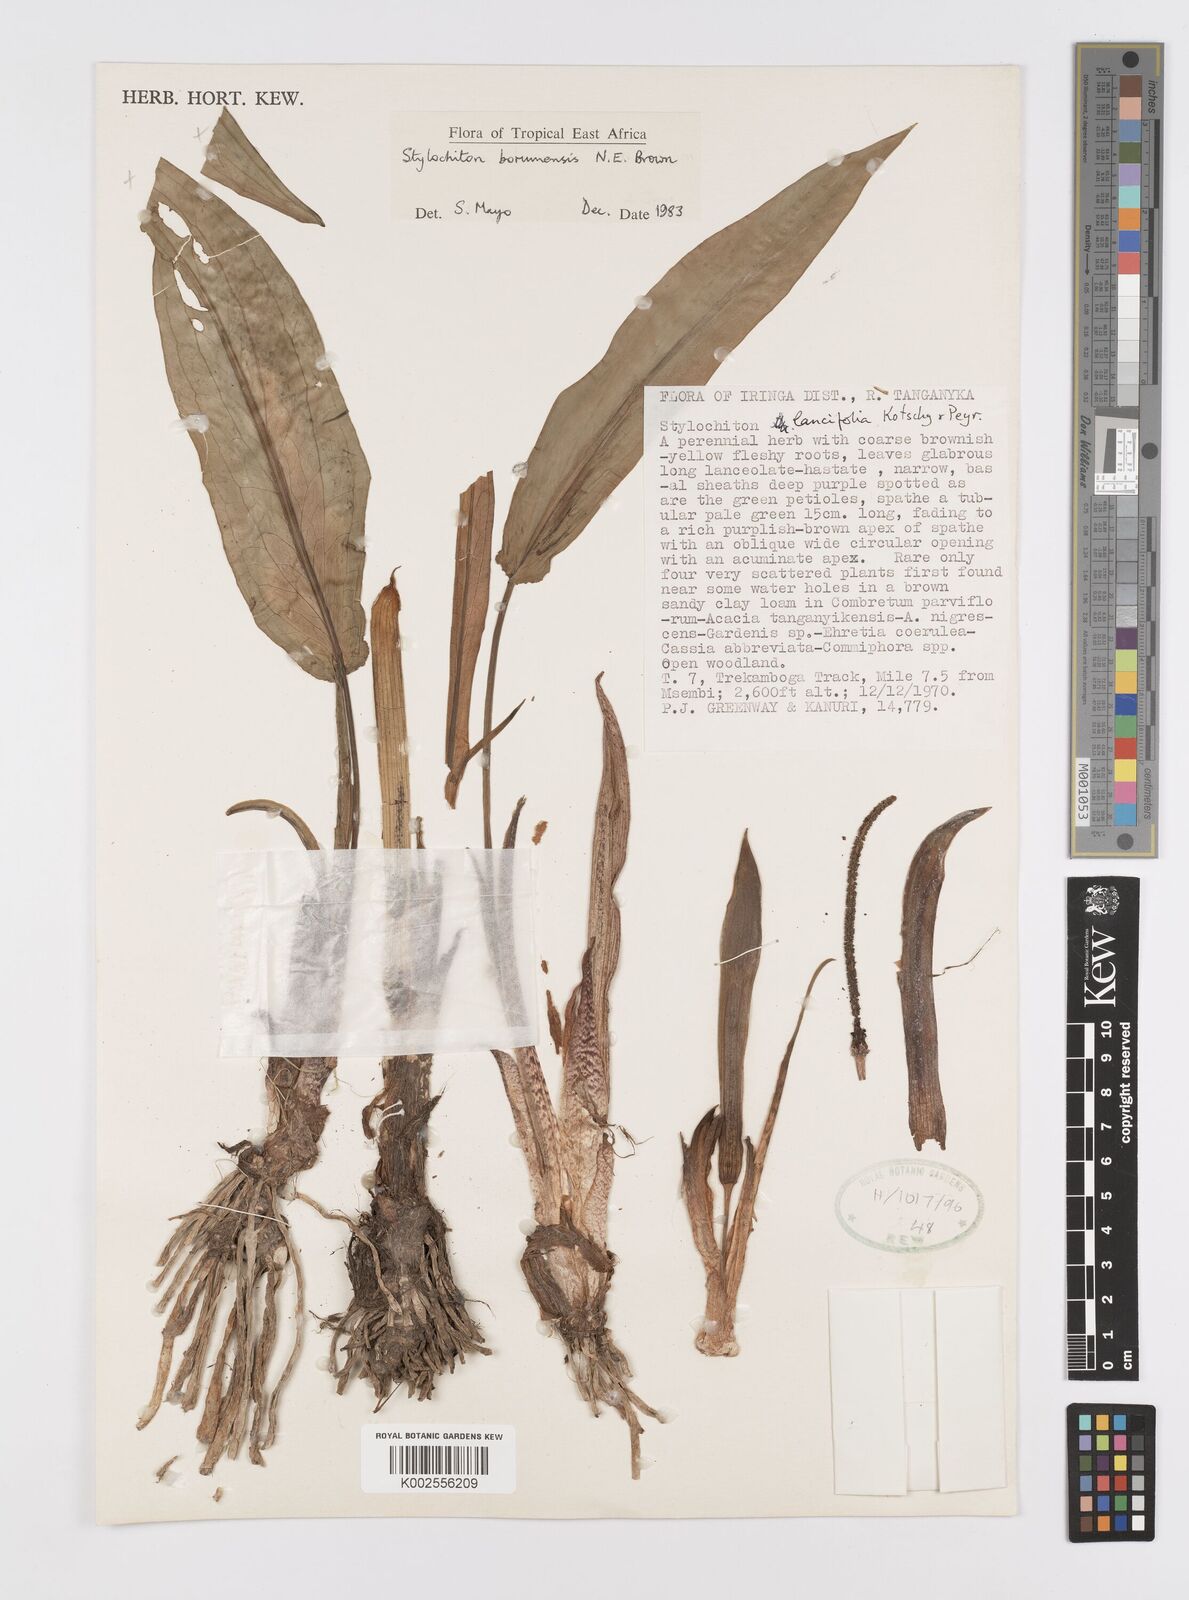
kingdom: Plantae
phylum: Tracheophyta
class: Liliopsida
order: Alismatales
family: Araceae
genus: Stylochaeton
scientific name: Stylochaeton borumense
